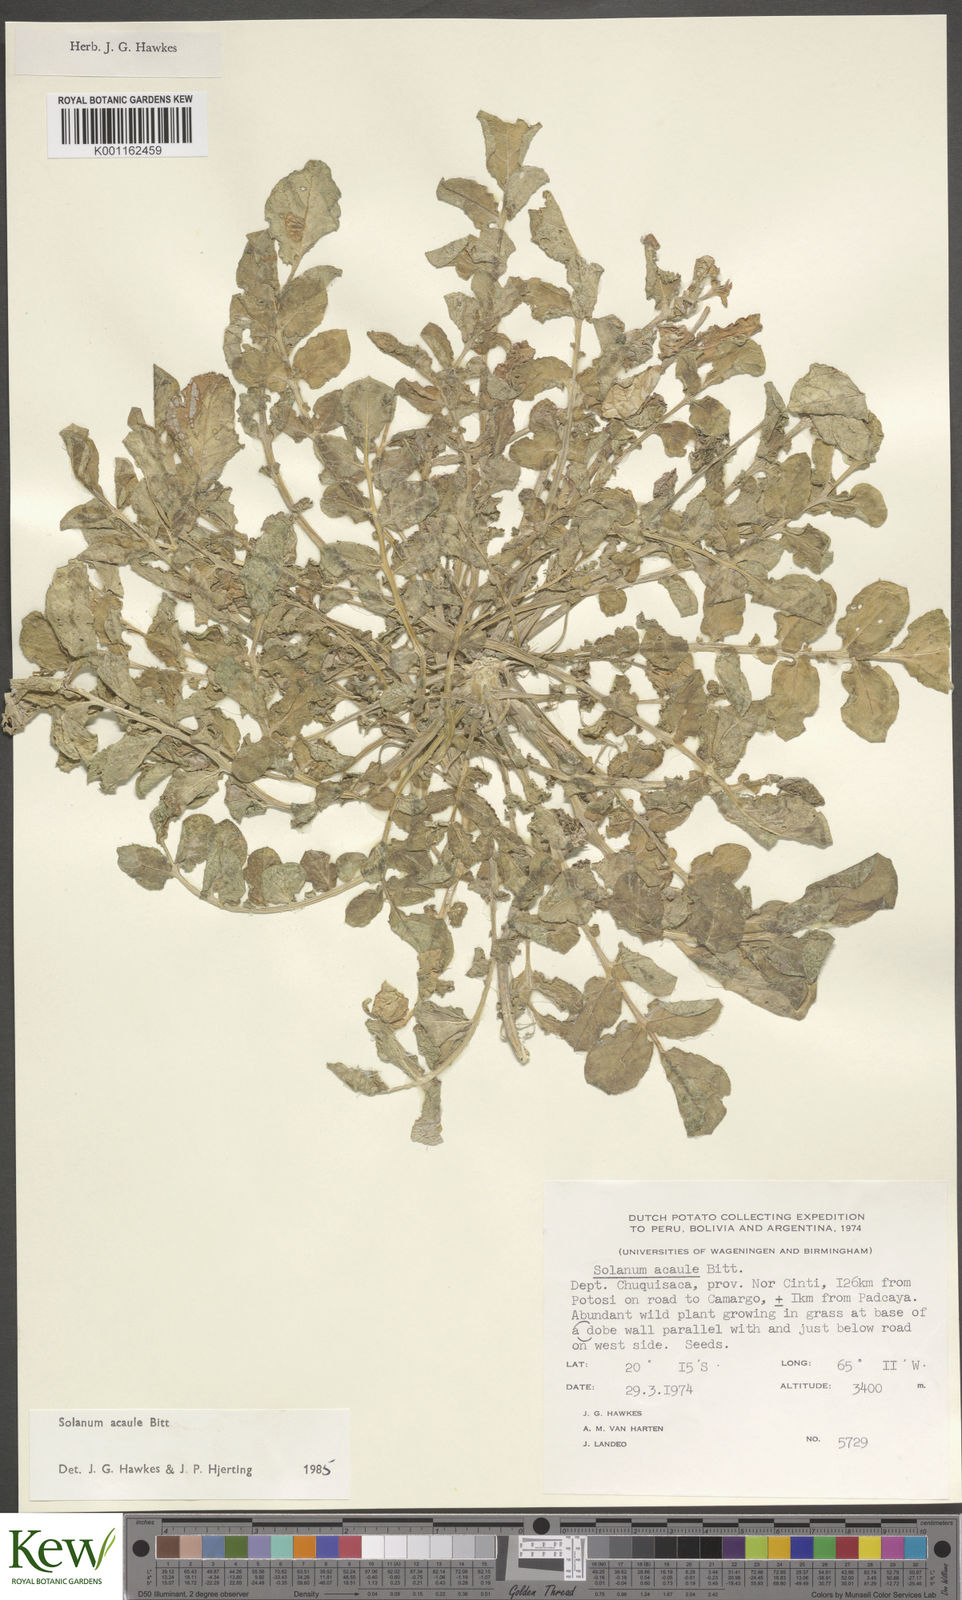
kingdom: Plantae
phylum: Tracheophyta
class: Magnoliopsida
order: Solanales
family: Solanaceae
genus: Solanum
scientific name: Solanum acaule
